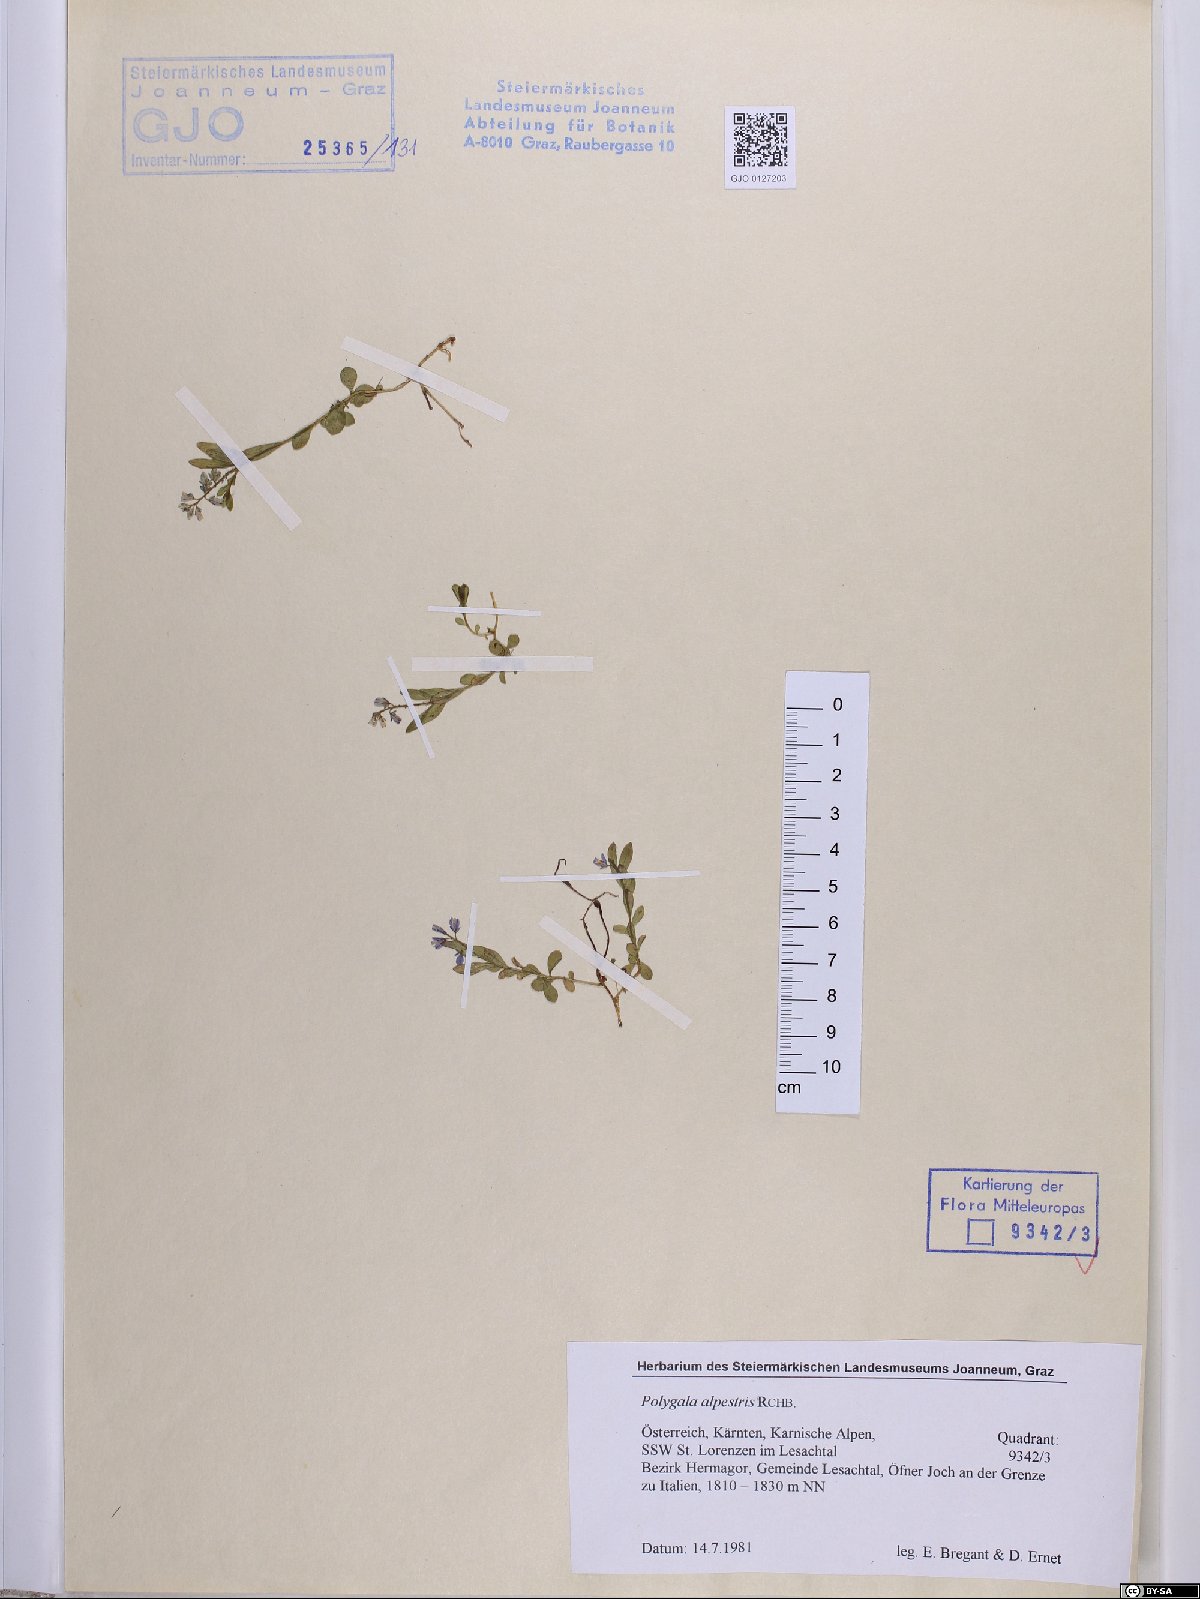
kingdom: Plantae
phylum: Tracheophyta
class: Magnoliopsida
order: Fabales
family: Polygalaceae
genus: Polygala
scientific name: Polygala alpestris
